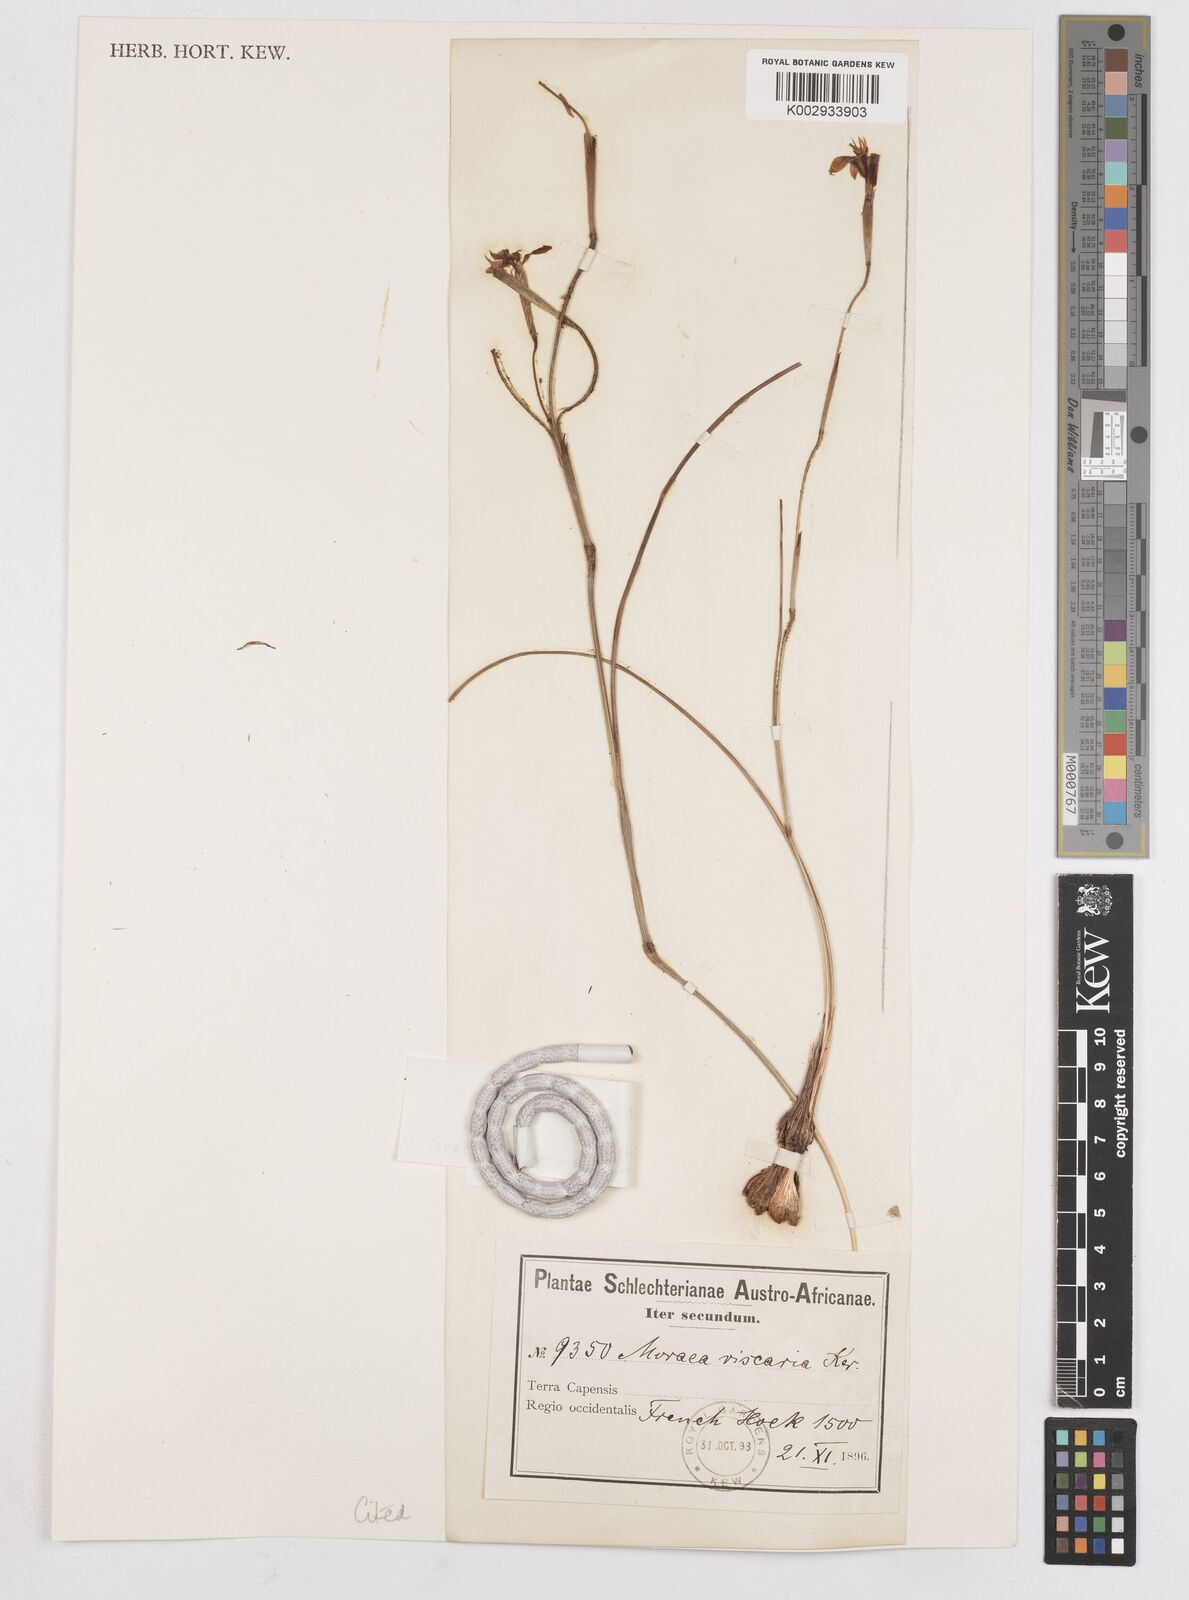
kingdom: Plantae
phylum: Tracheophyta
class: Liliopsida
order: Asparagales
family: Iridaceae
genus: Moraea
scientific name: Moraea inconspicua
